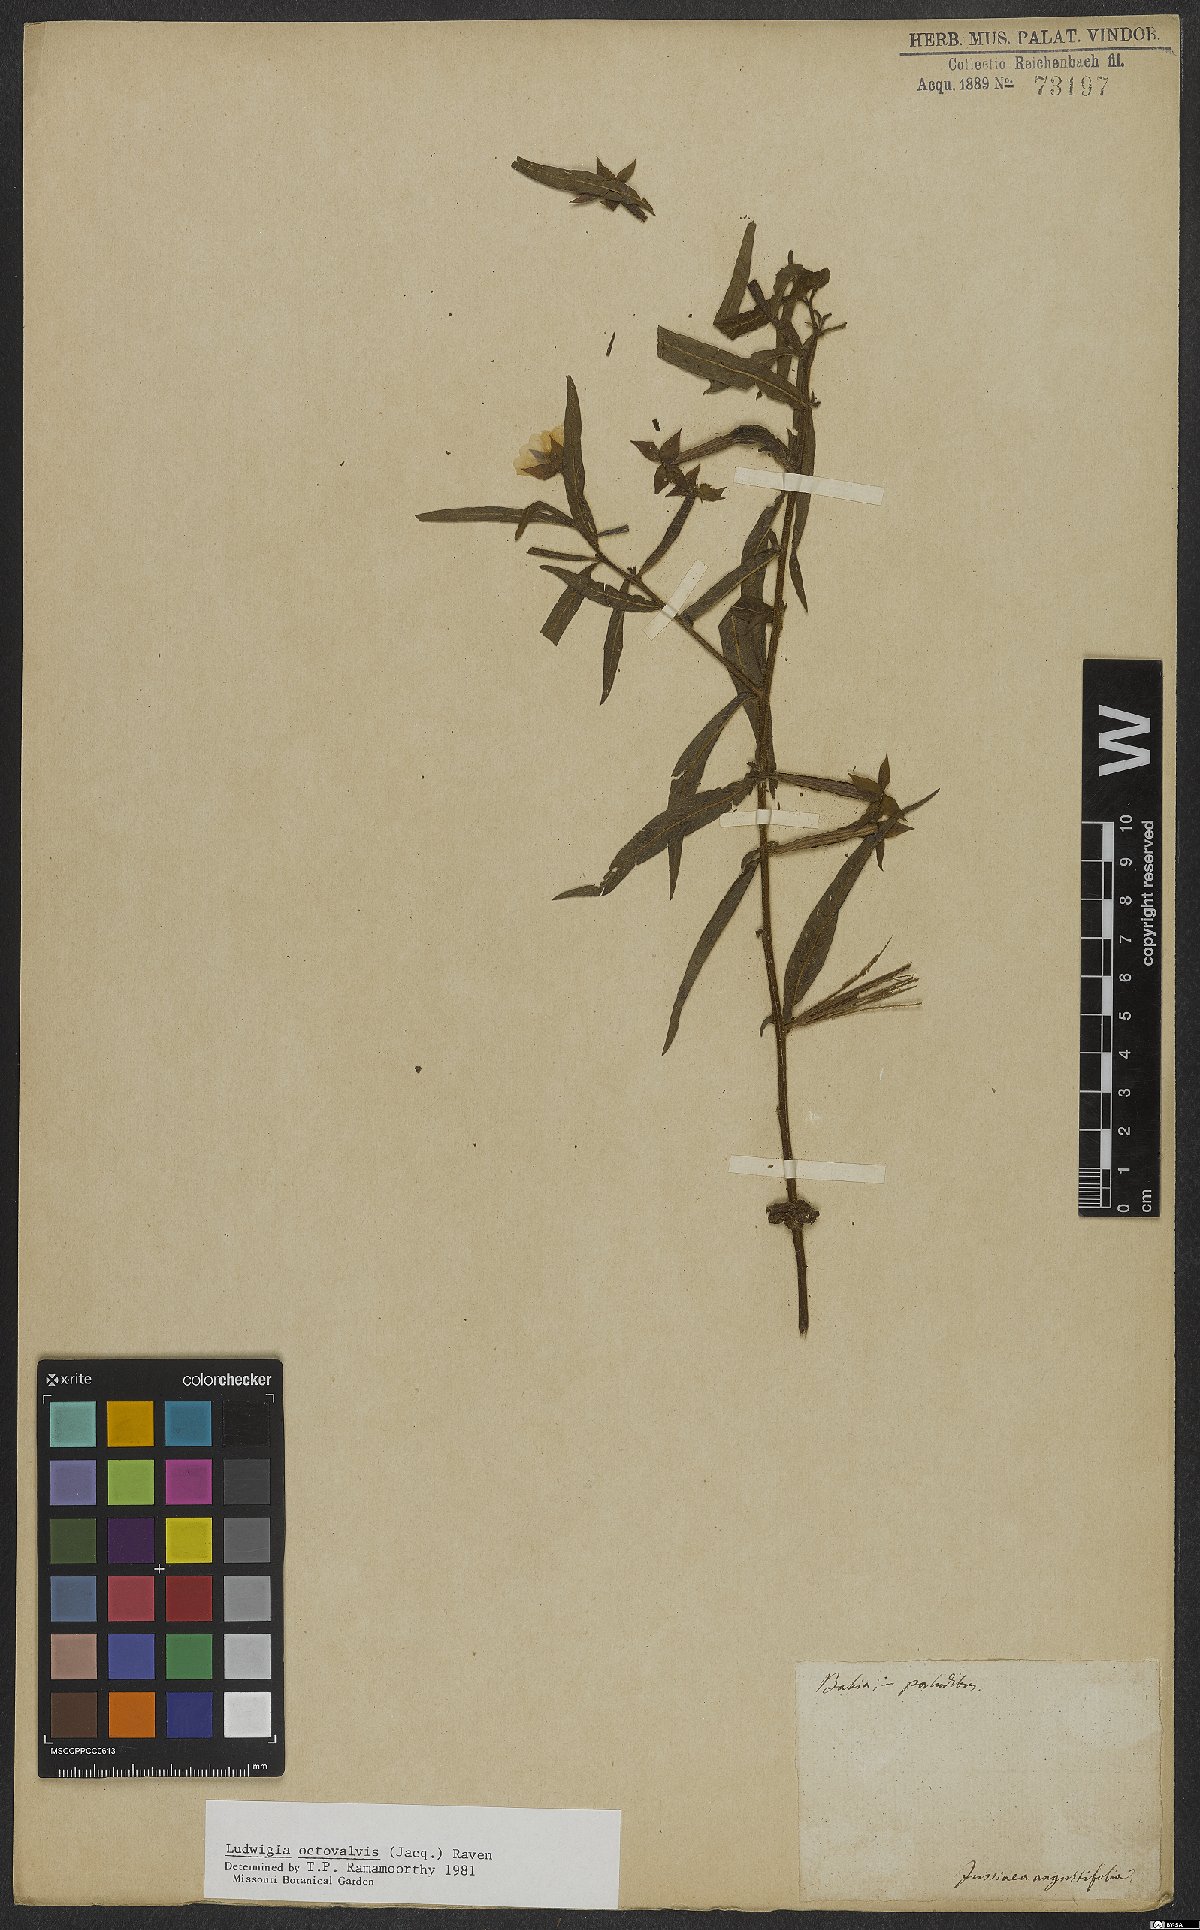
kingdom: Plantae
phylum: Tracheophyta
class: Magnoliopsida
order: Myrtales
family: Onagraceae
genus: Ludwigia
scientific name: Ludwigia octovalvis
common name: Water-primrose
